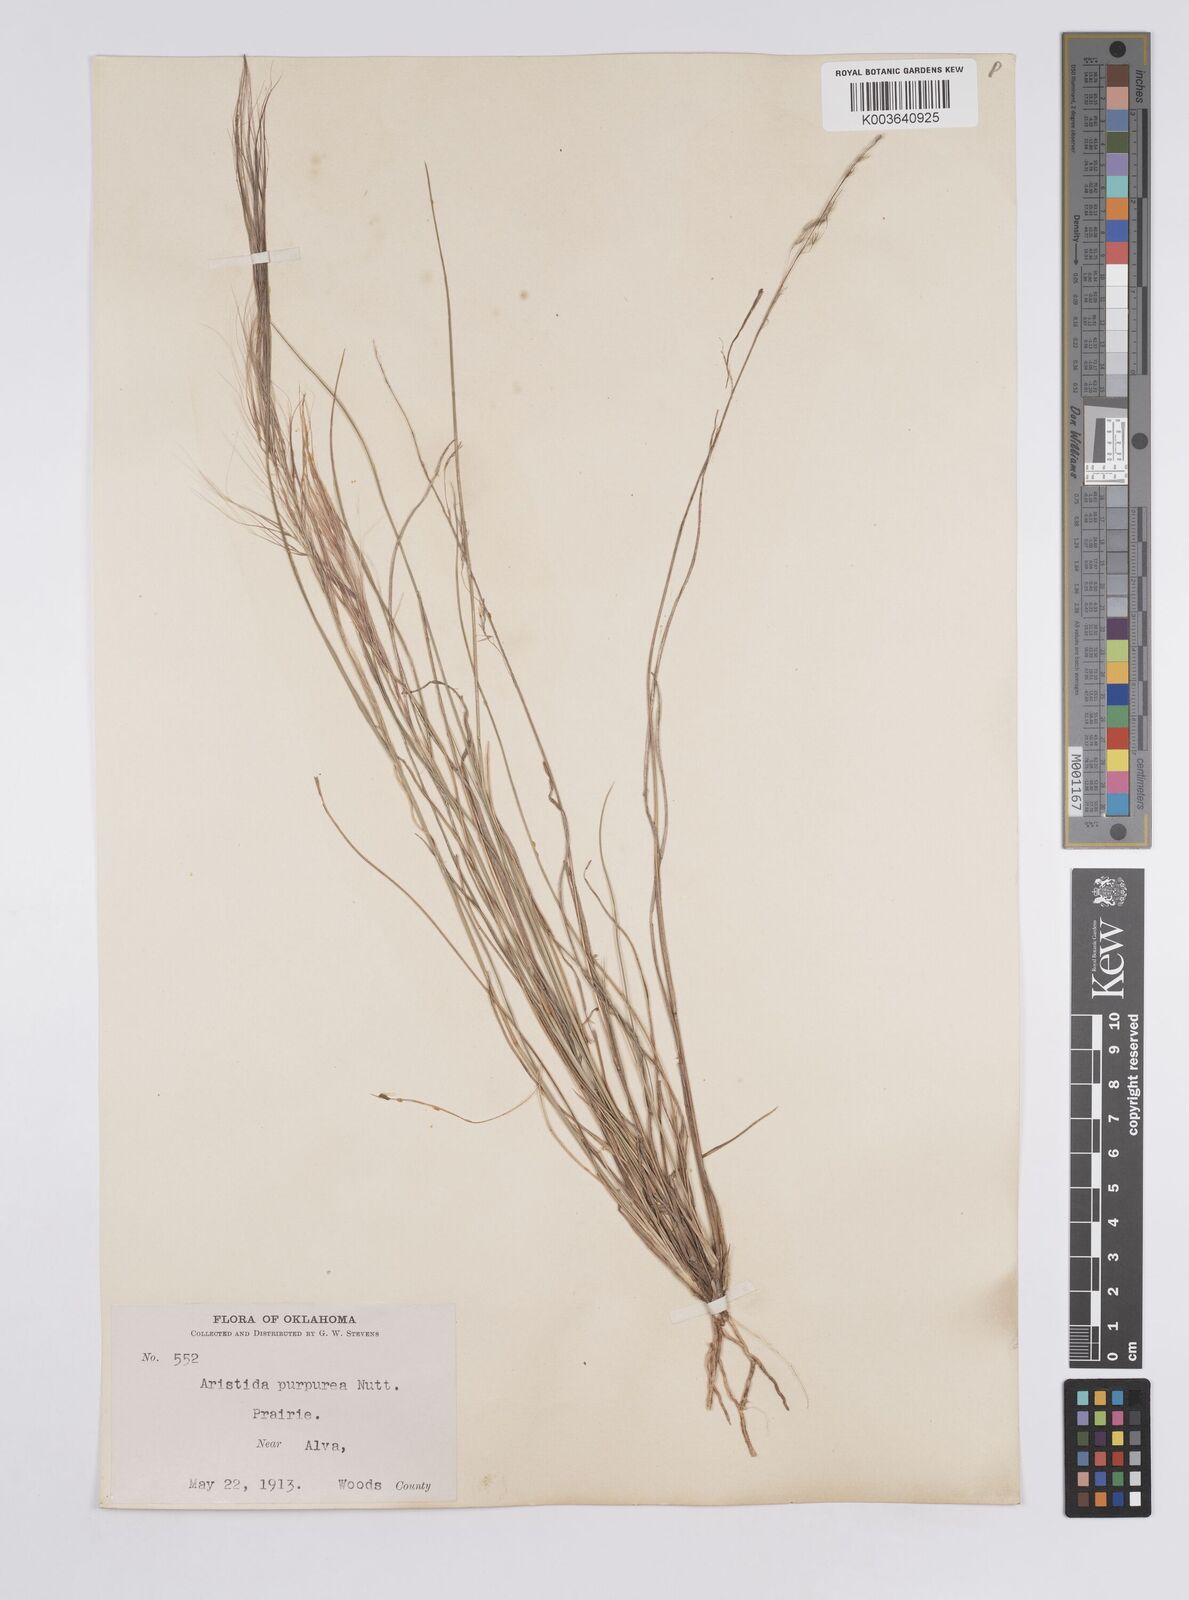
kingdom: Plantae
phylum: Tracheophyta
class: Liliopsida
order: Poales
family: Poaceae
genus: Aristida
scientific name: Aristida purpurea
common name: Purple threeawn
